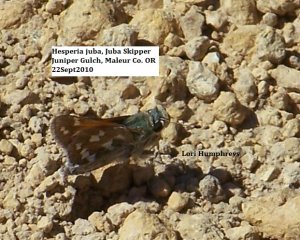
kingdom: Animalia
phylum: Arthropoda
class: Insecta
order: Lepidoptera
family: Hesperiidae
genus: Hesperia
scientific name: Hesperia juba
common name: Juba Skipper
